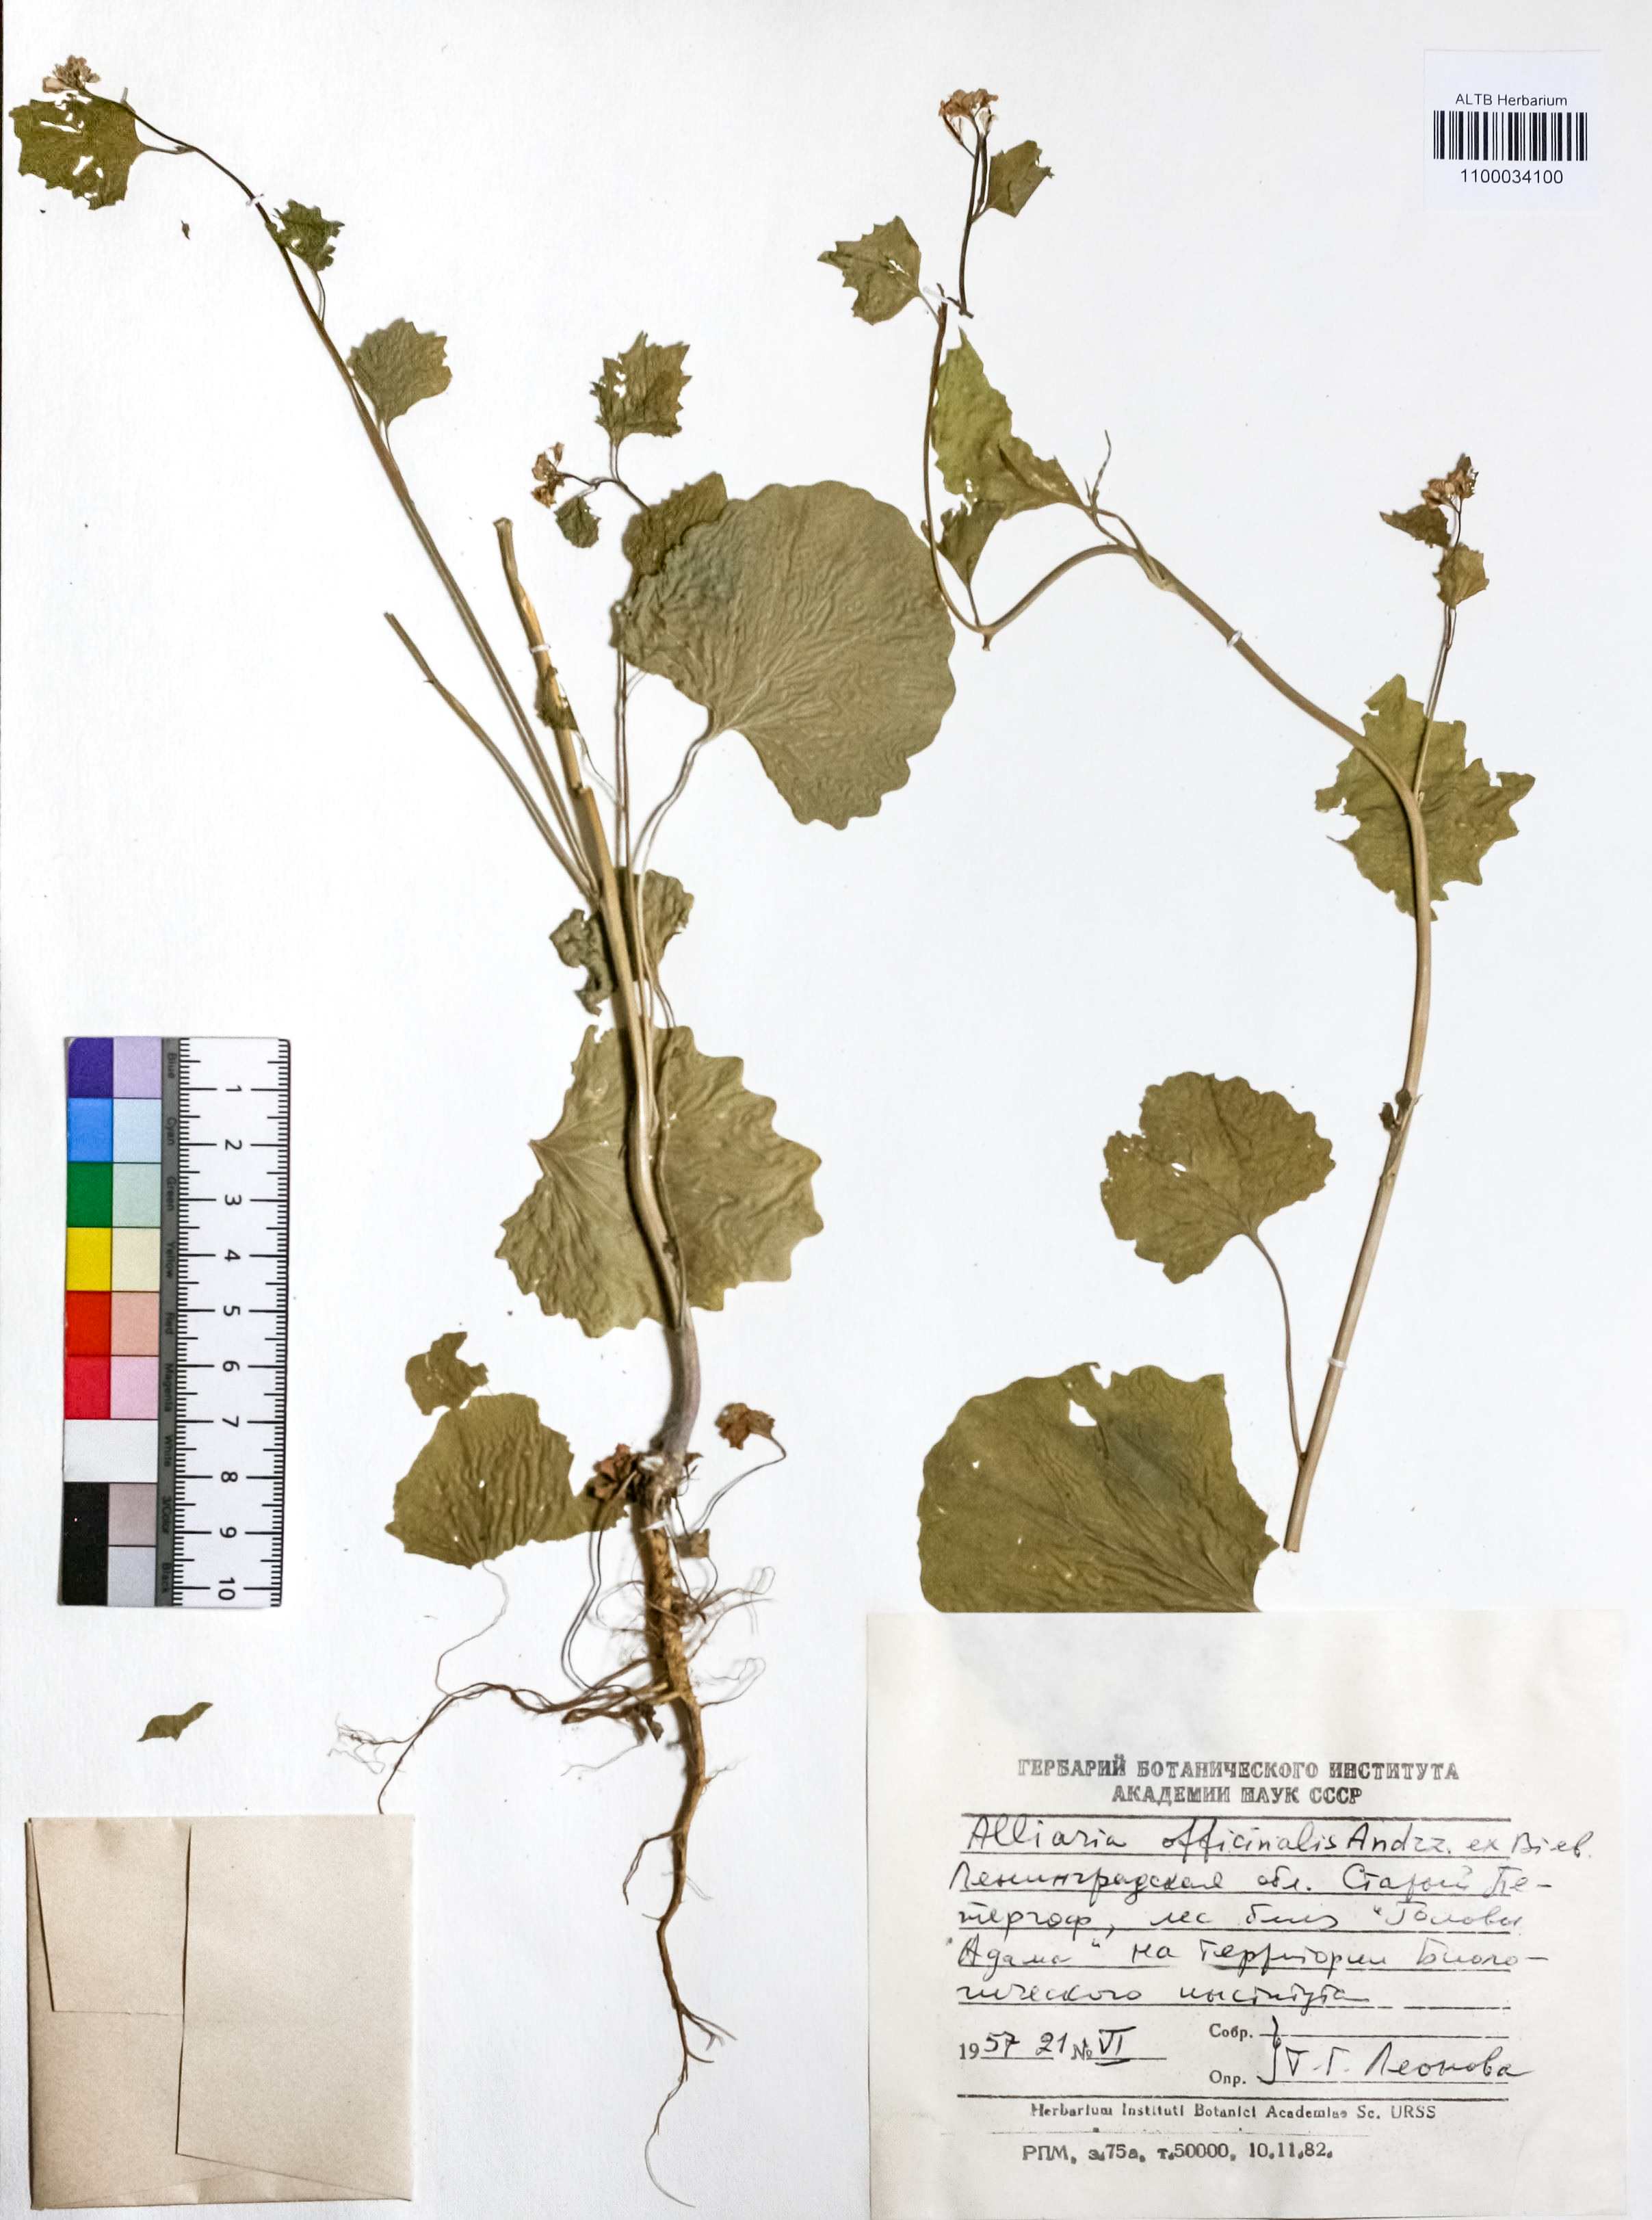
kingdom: Plantae
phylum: Tracheophyta
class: Magnoliopsida
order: Brassicales
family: Brassicaceae
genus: Alliaria
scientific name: Alliaria petiolata
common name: Garlic mustard
